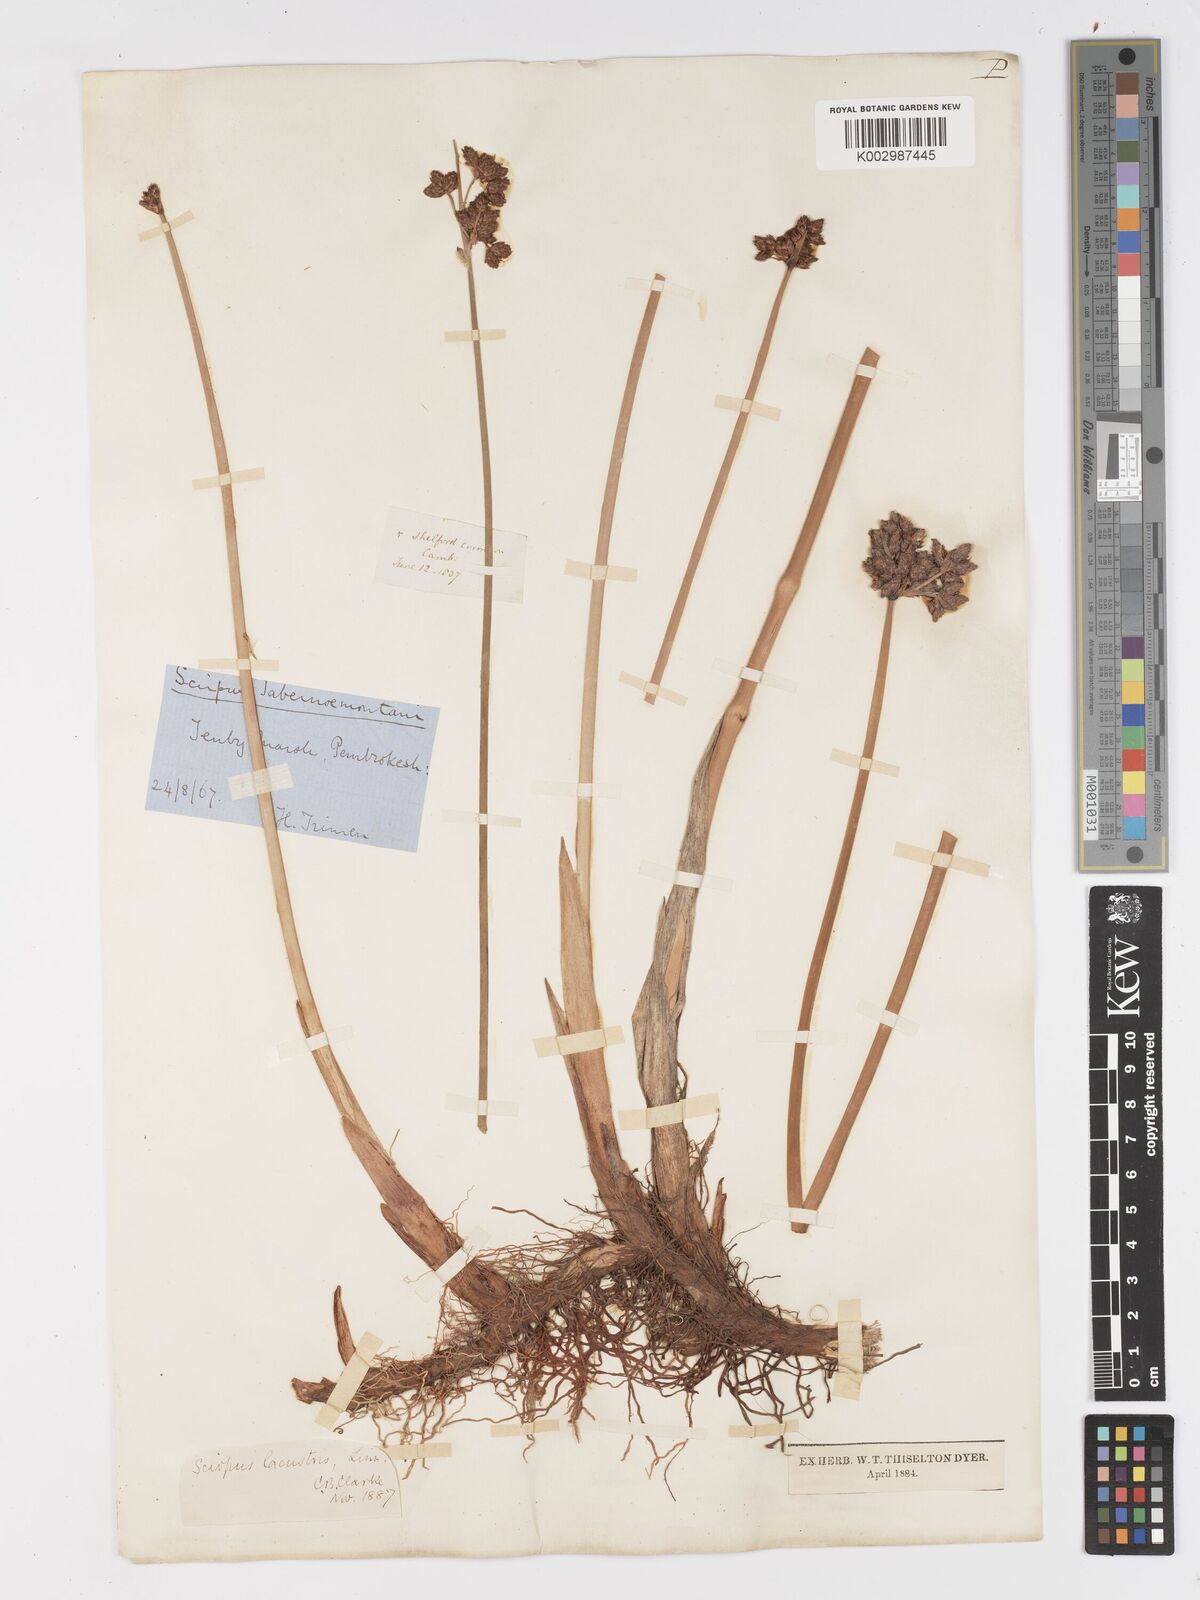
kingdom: Plantae
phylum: Tracheophyta
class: Liliopsida
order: Poales
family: Cyperaceae
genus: Schoenoplectus
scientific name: Schoenoplectus lacustris
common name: Common club-rush
